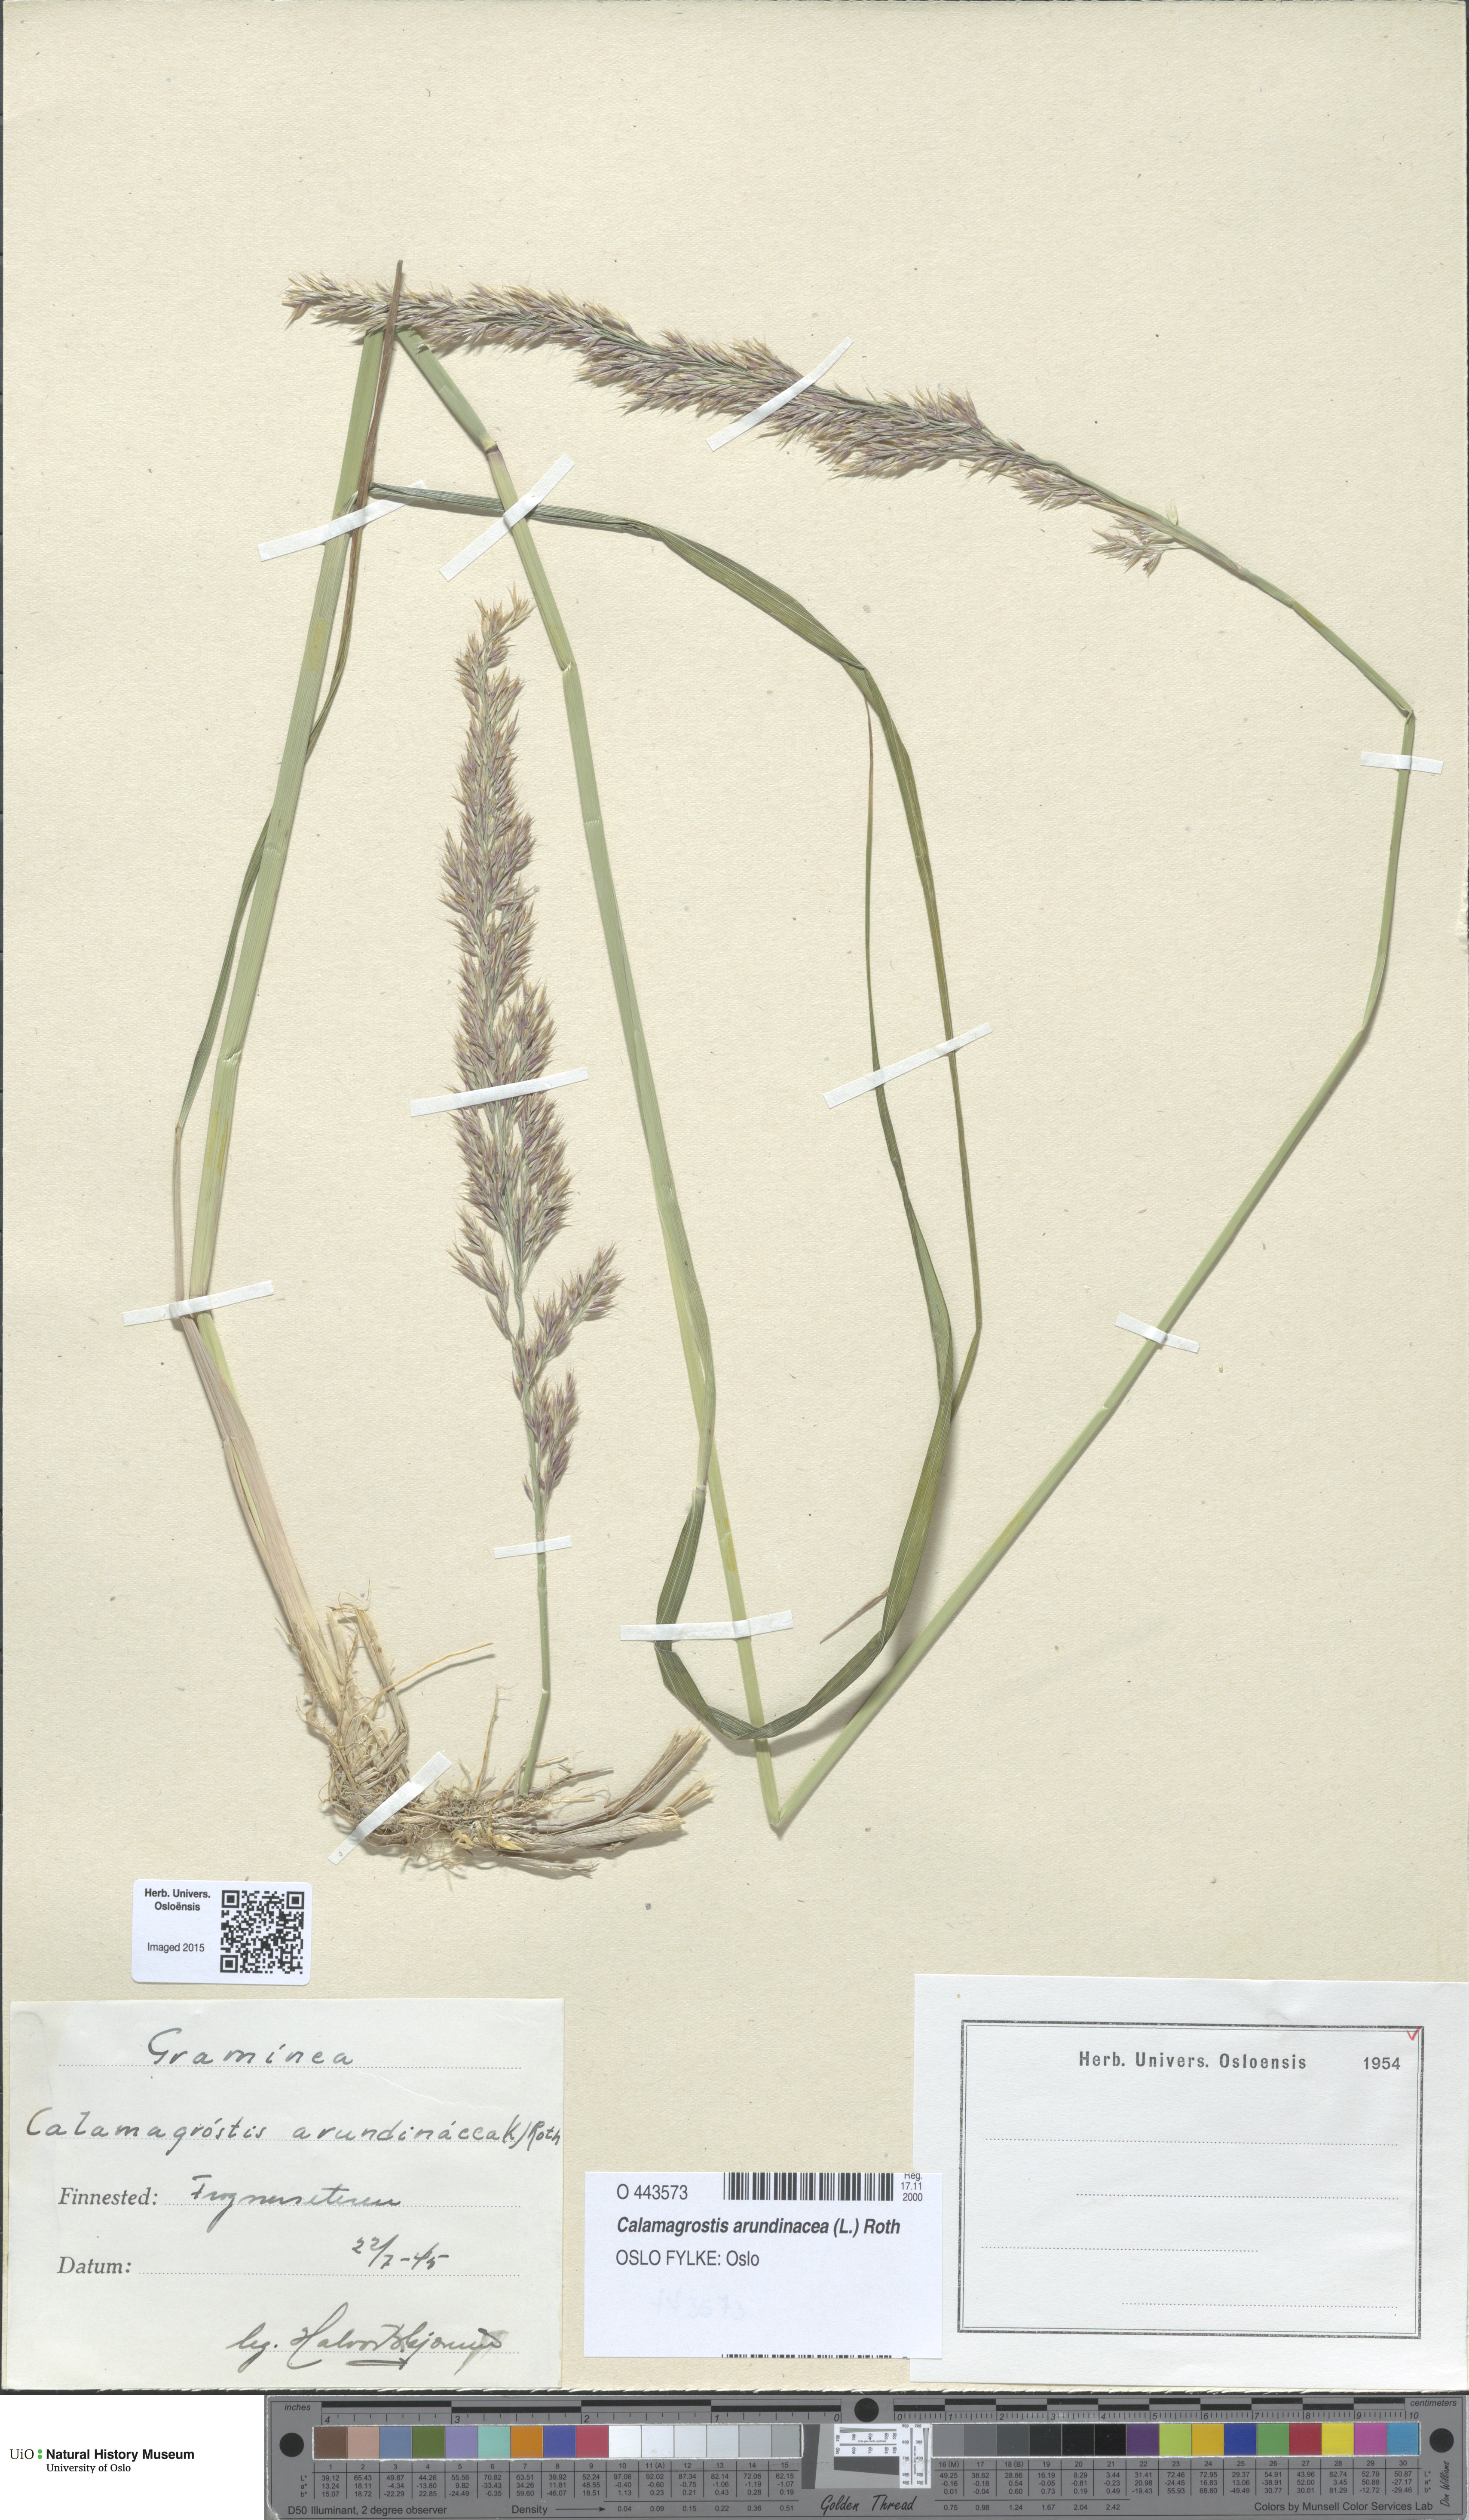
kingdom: Plantae
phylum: Tracheophyta
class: Liliopsida
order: Poales
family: Poaceae
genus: Calamagrostis
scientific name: Calamagrostis arundinacea
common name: Metskastik
